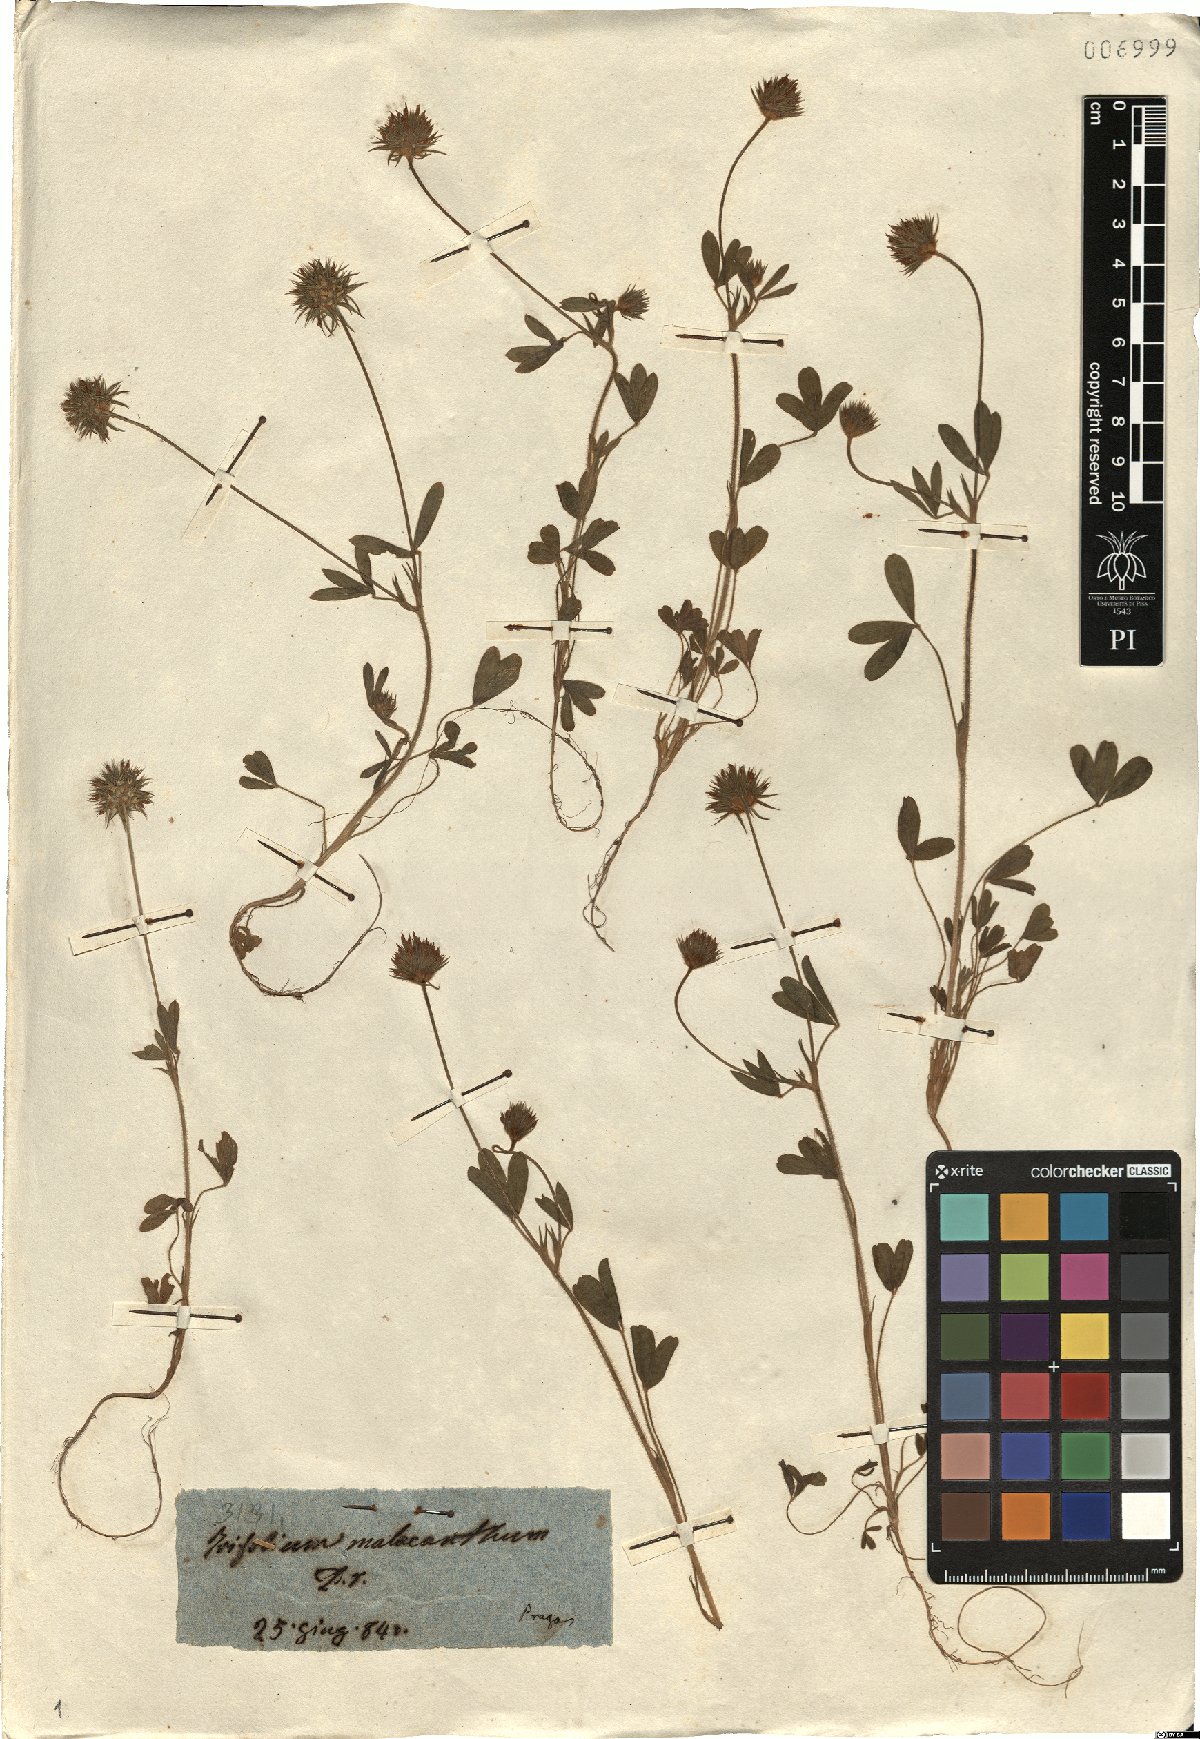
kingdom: Plantae
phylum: Tracheophyta
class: Magnoliopsida
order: Fabales
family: Fabaceae
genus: Trifolium
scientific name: Trifolium obscurum
